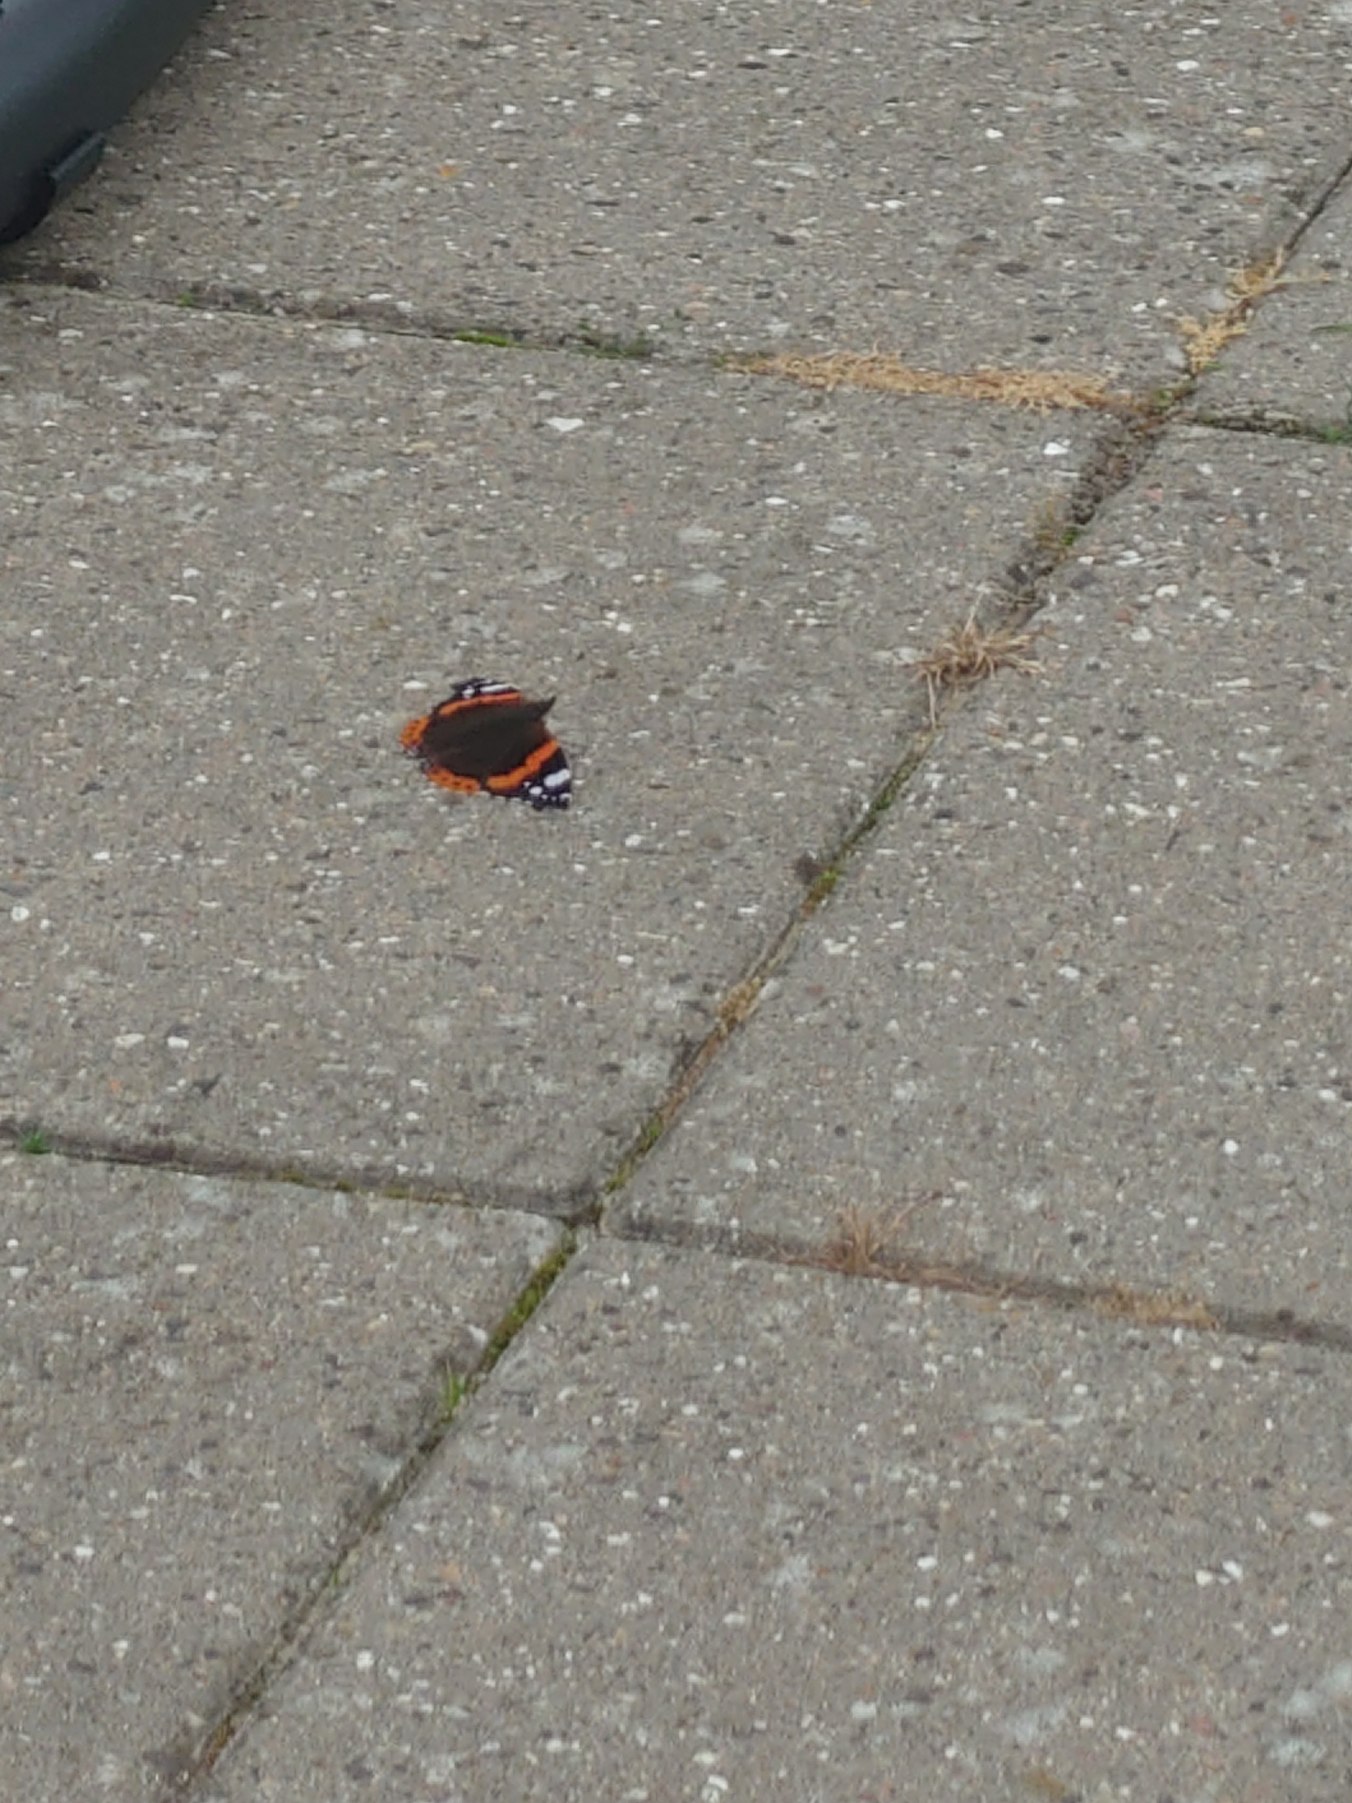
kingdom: Animalia
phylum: Arthropoda
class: Insecta
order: Lepidoptera
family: Nymphalidae
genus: Vanessa
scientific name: Vanessa atalanta
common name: Admiral
